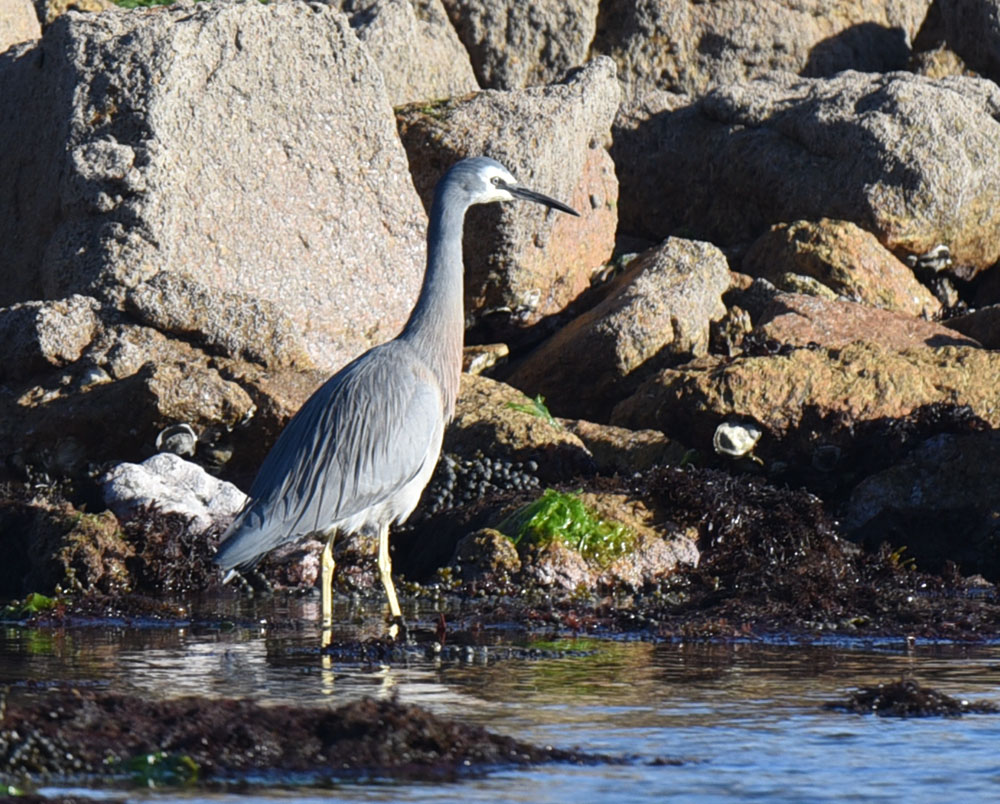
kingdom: Animalia
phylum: Chordata
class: Aves
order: Pelecaniformes
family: Ardeidae
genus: Egretta
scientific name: Egretta novaehollandiae
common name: White-faced heron
